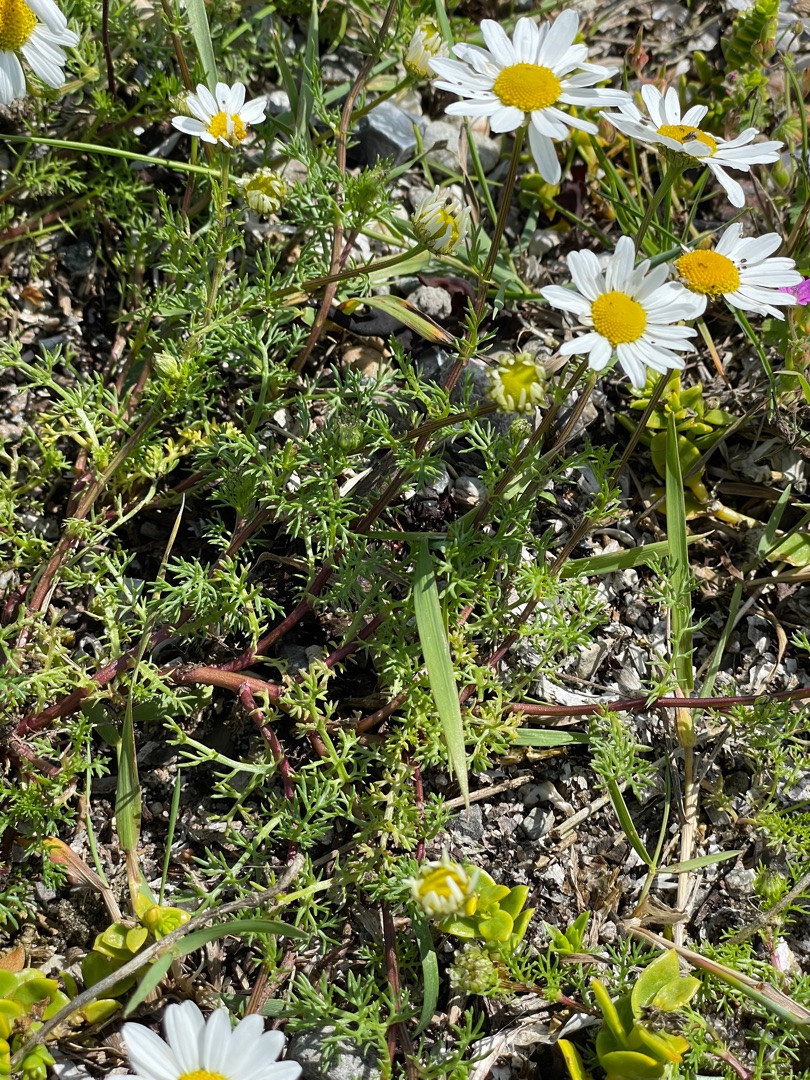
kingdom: Plantae
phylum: Tracheophyta
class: Magnoliopsida
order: Asterales
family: Asteraceae
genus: Tripleurospermum
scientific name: Tripleurospermum maritimum
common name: Strand-kamille
